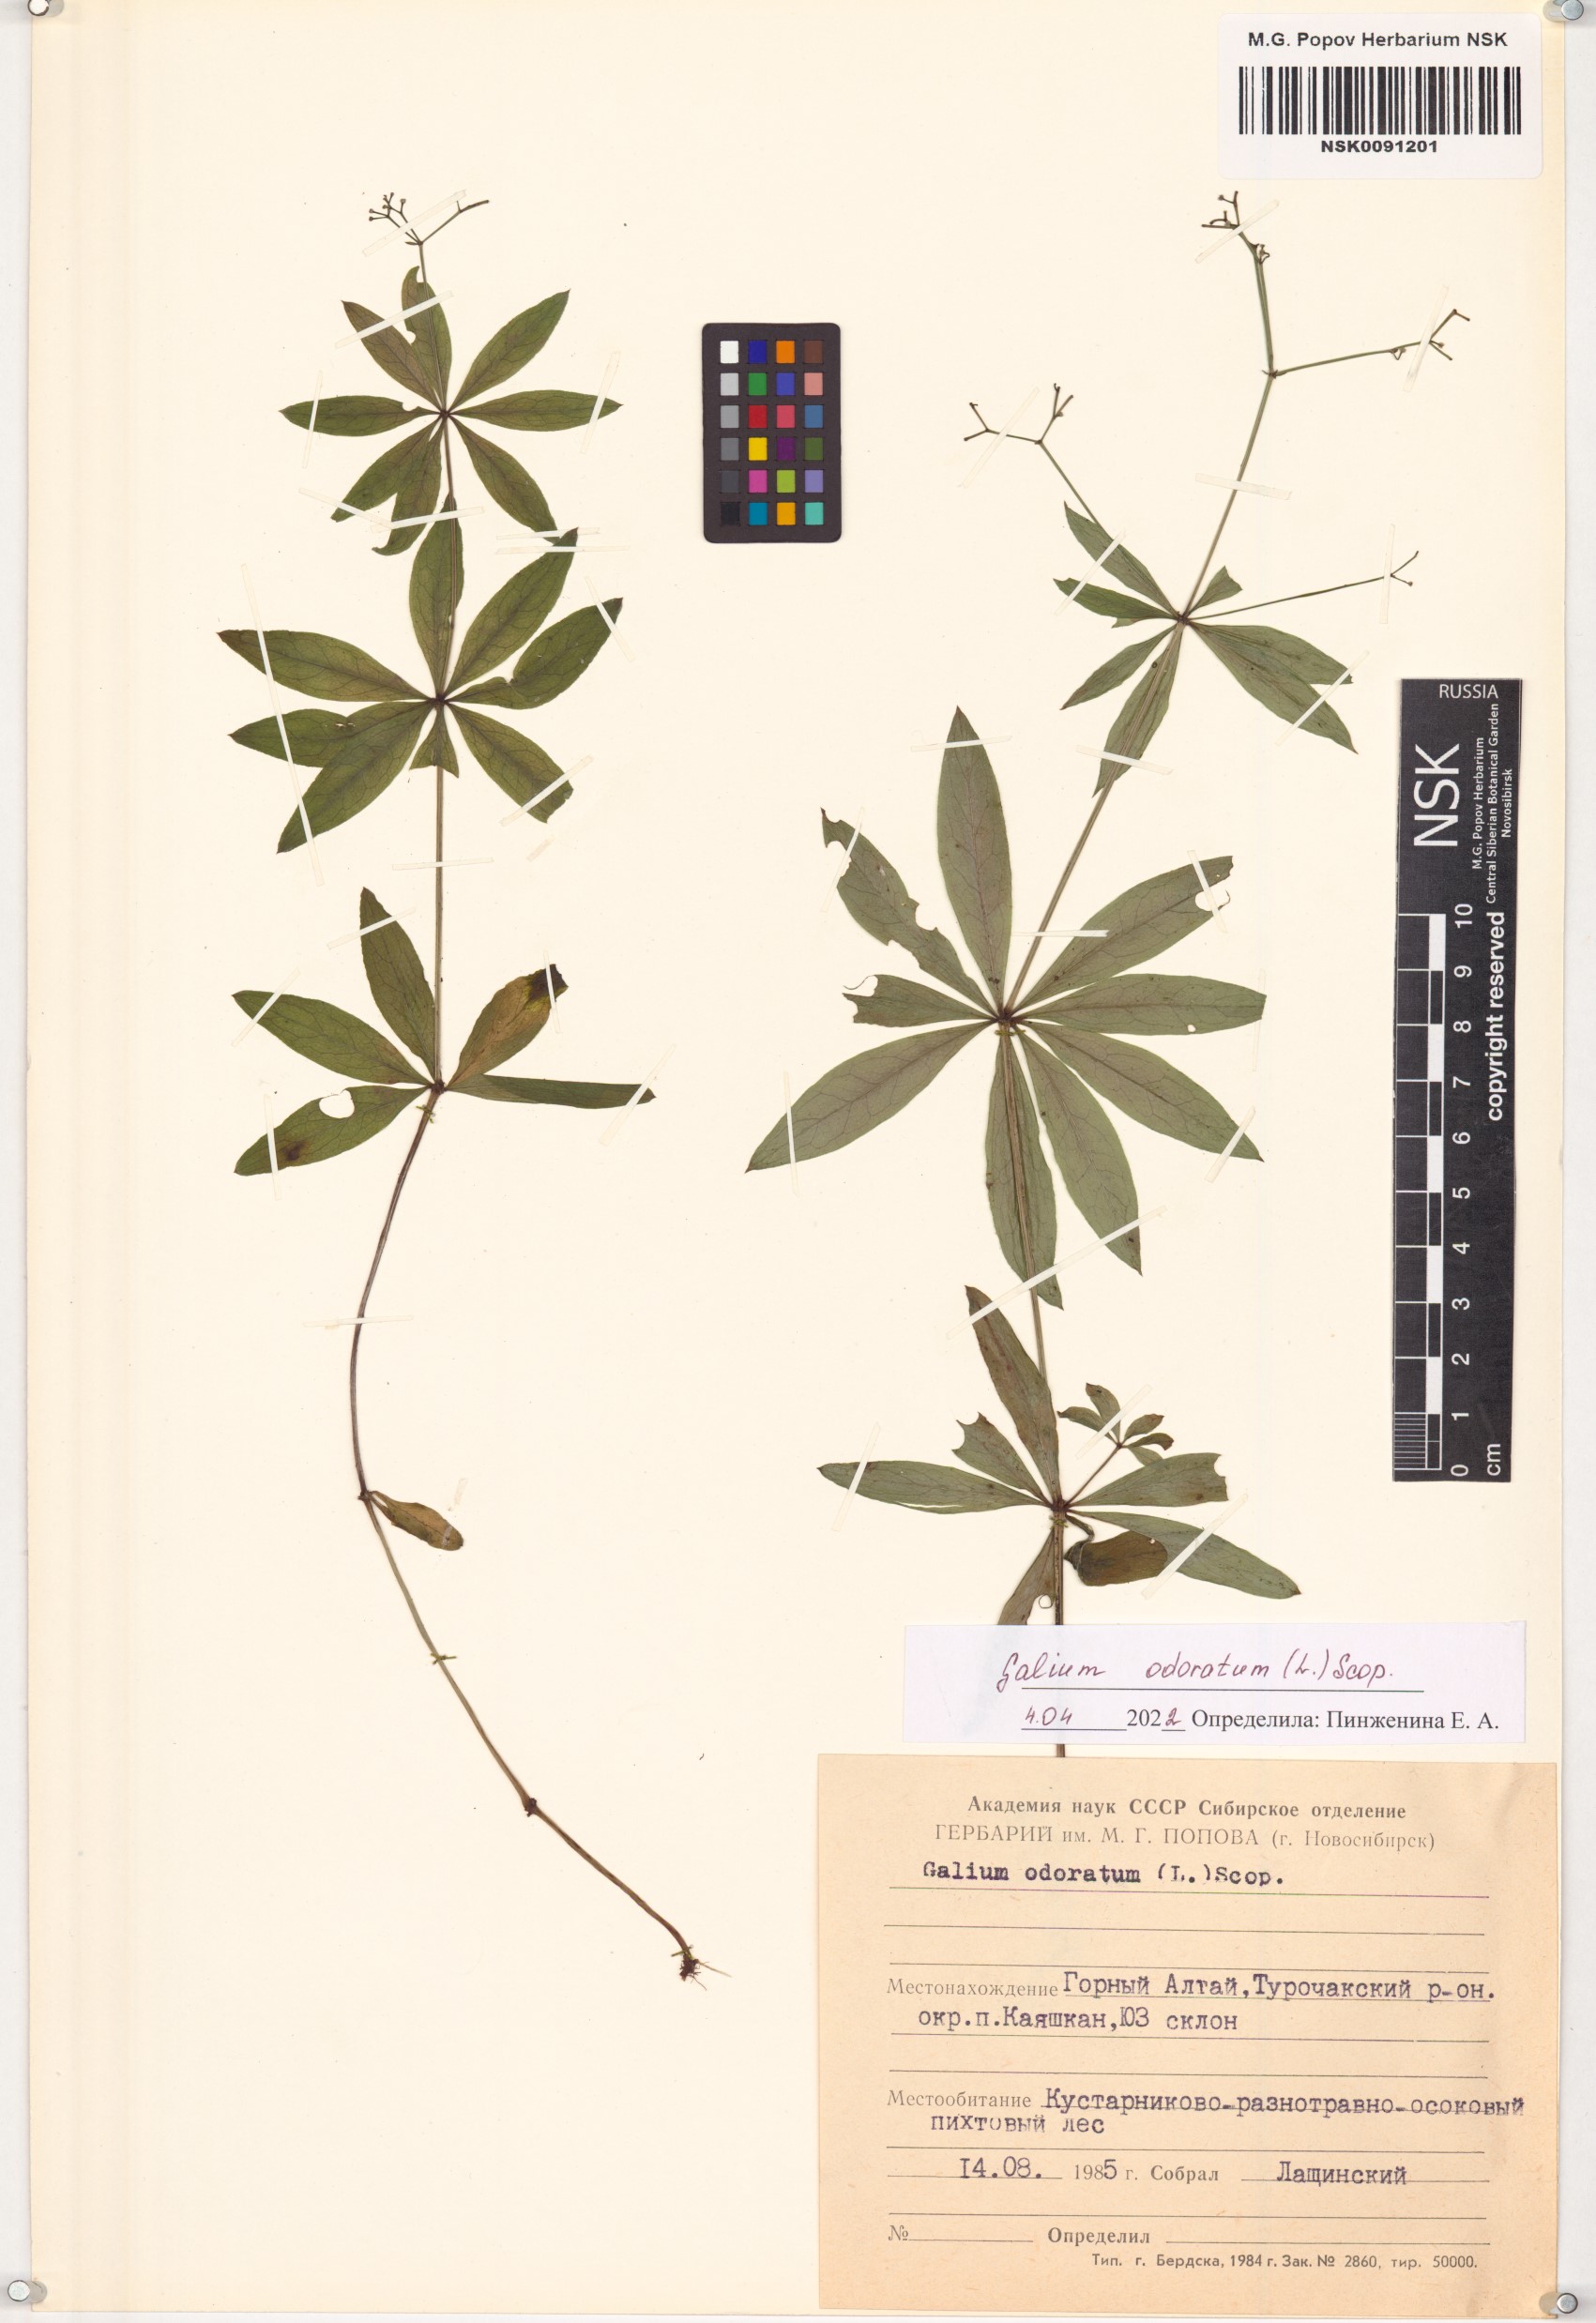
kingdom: Plantae
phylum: Tracheophyta
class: Magnoliopsida
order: Gentianales
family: Rubiaceae
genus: Galium
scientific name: Galium odoratum
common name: Sweet woodruff
